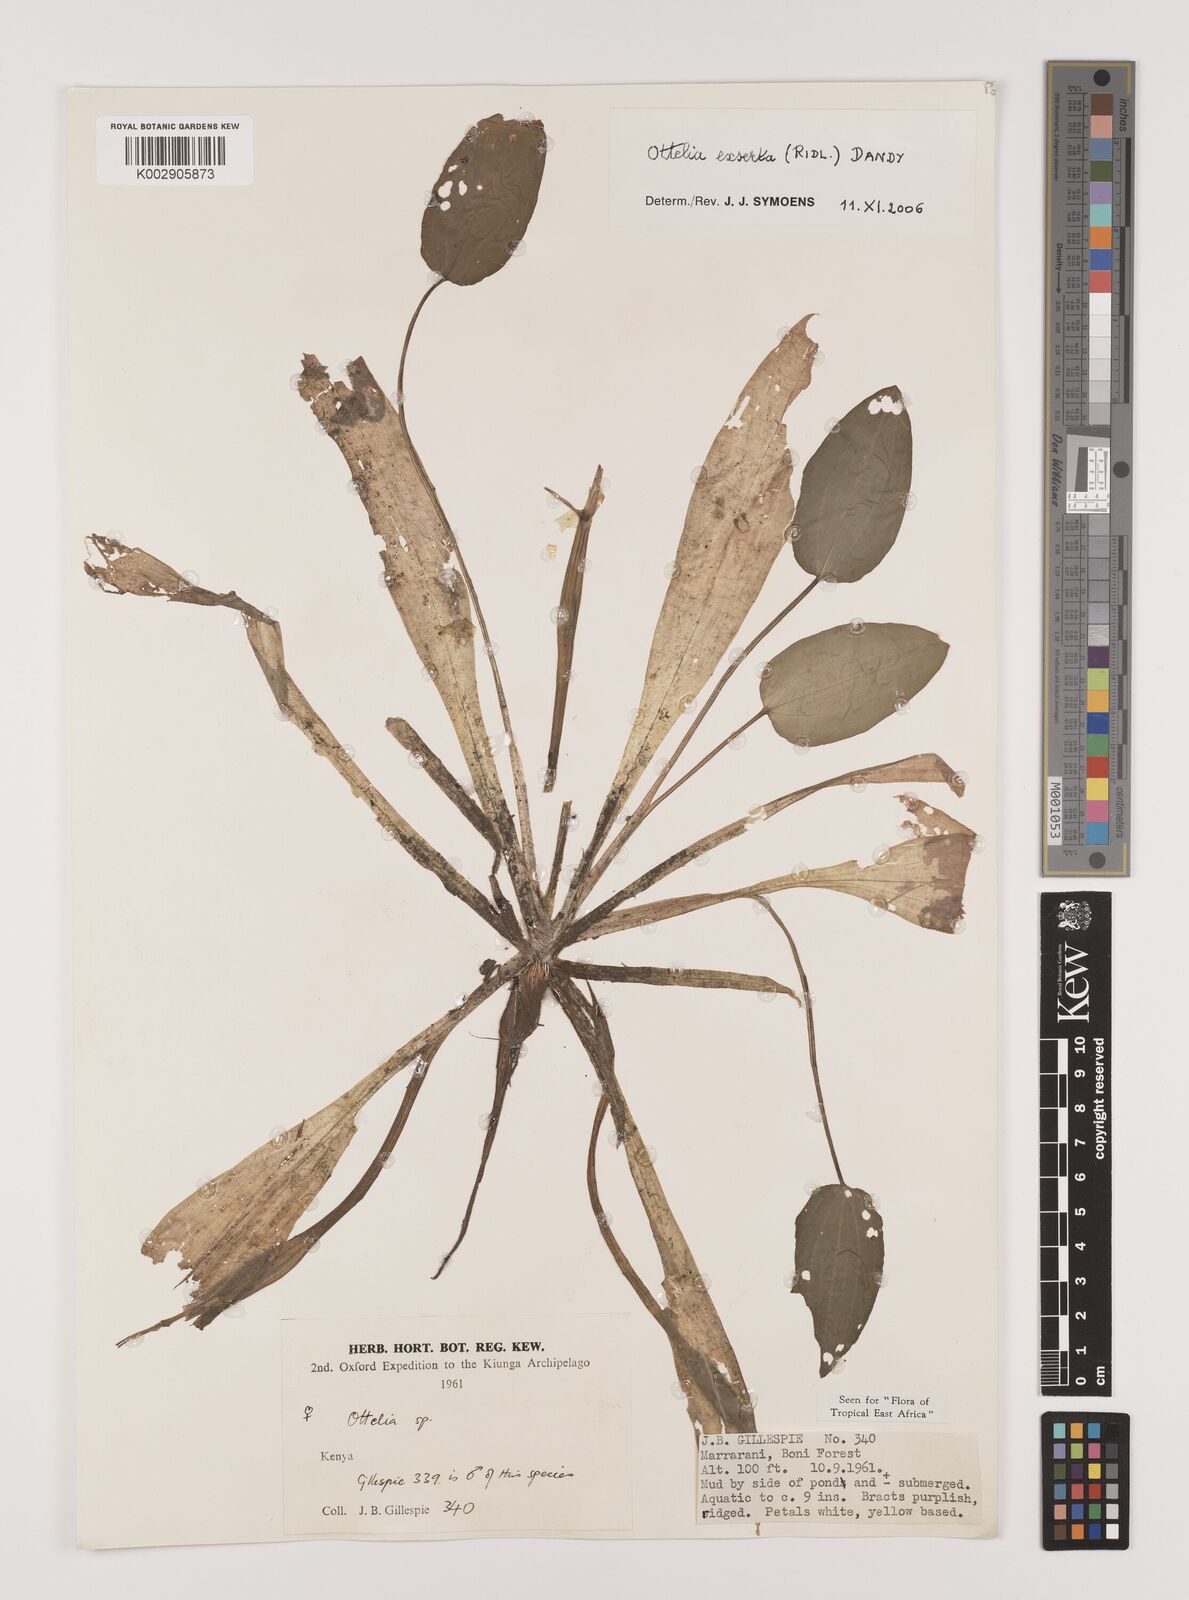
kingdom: Plantae
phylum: Tracheophyta
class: Liliopsida
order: Alismatales
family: Hydrocharitaceae
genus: Ottelia
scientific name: Ottelia exserta
